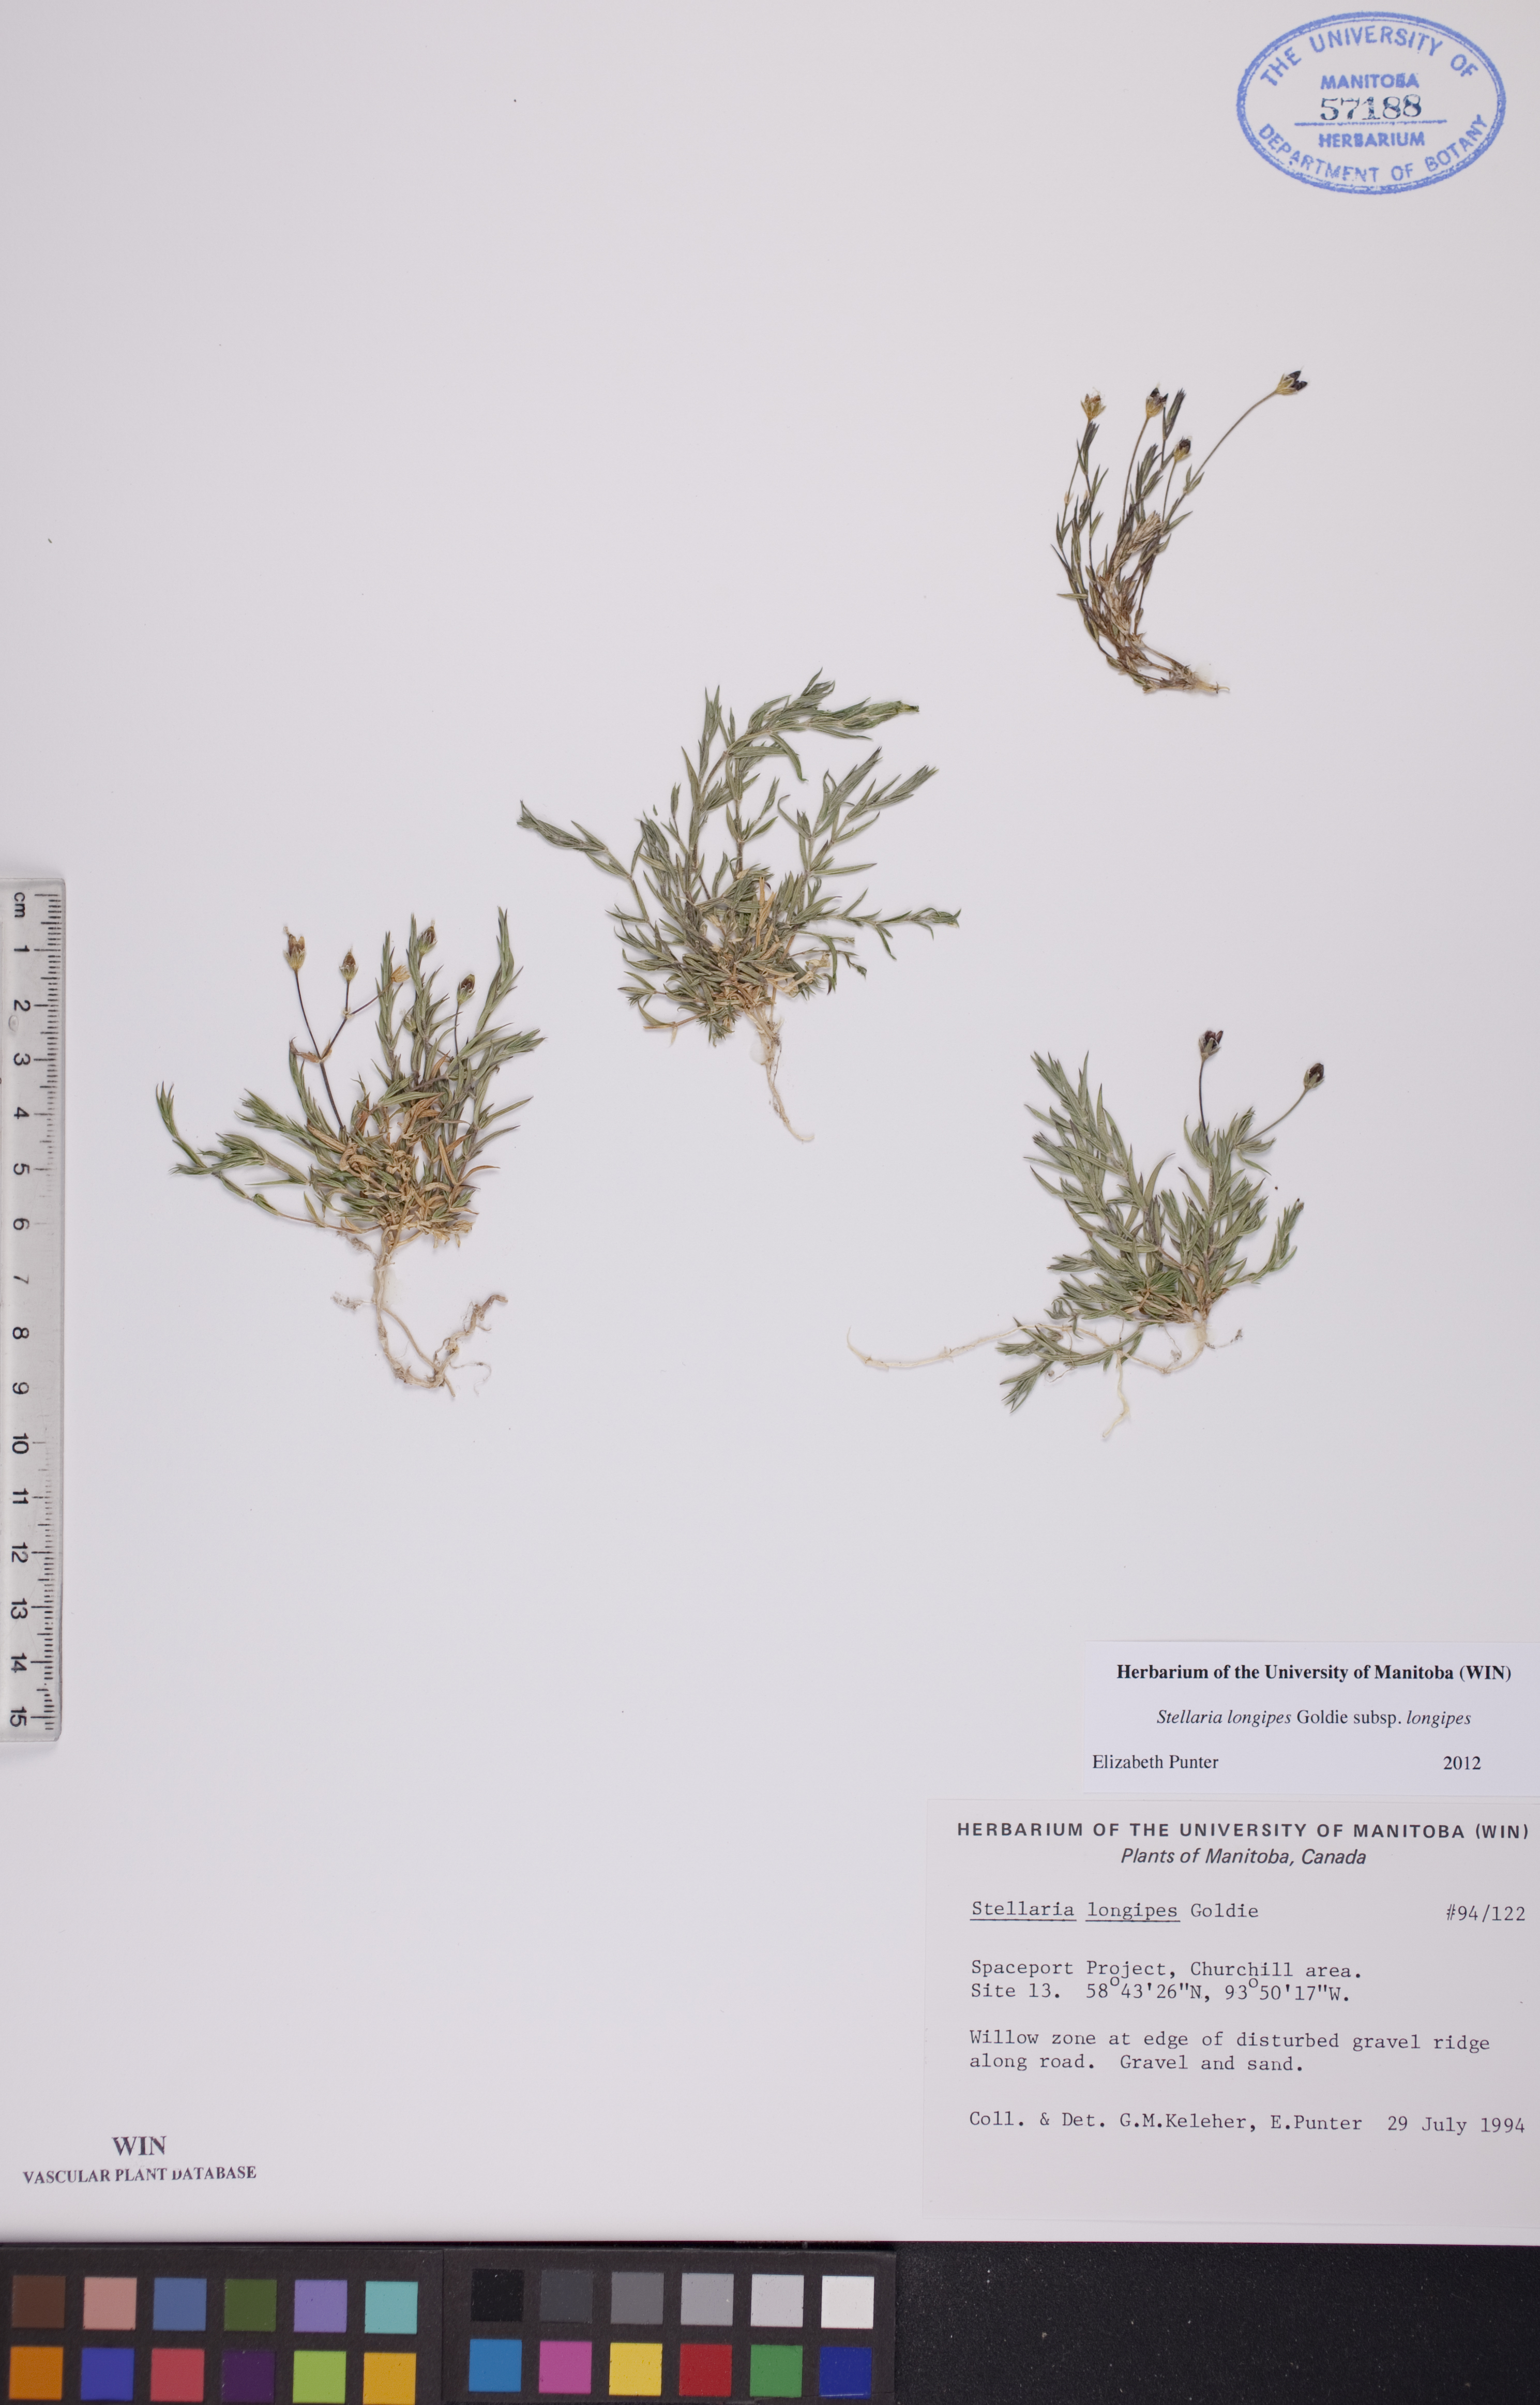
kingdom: Plantae
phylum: Tracheophyta
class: Magnoliopsida
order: Caryophyllales
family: Caryophyllaceae
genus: Stellaria
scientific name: Stellaria longipes
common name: Goldie's starwort
